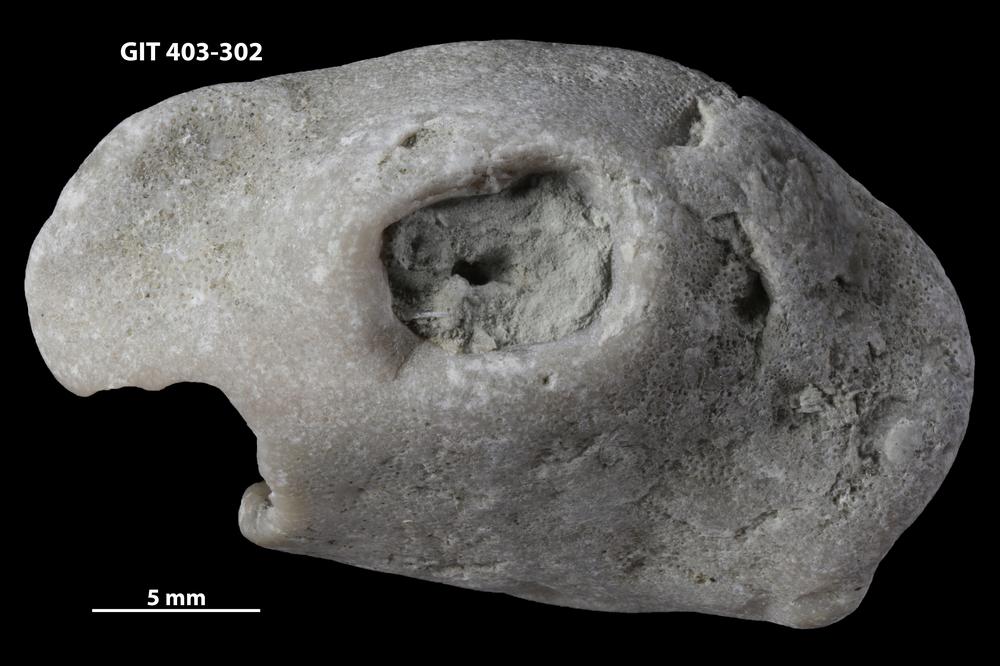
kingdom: Animalia
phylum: Bryozoa
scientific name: Bryozoa
